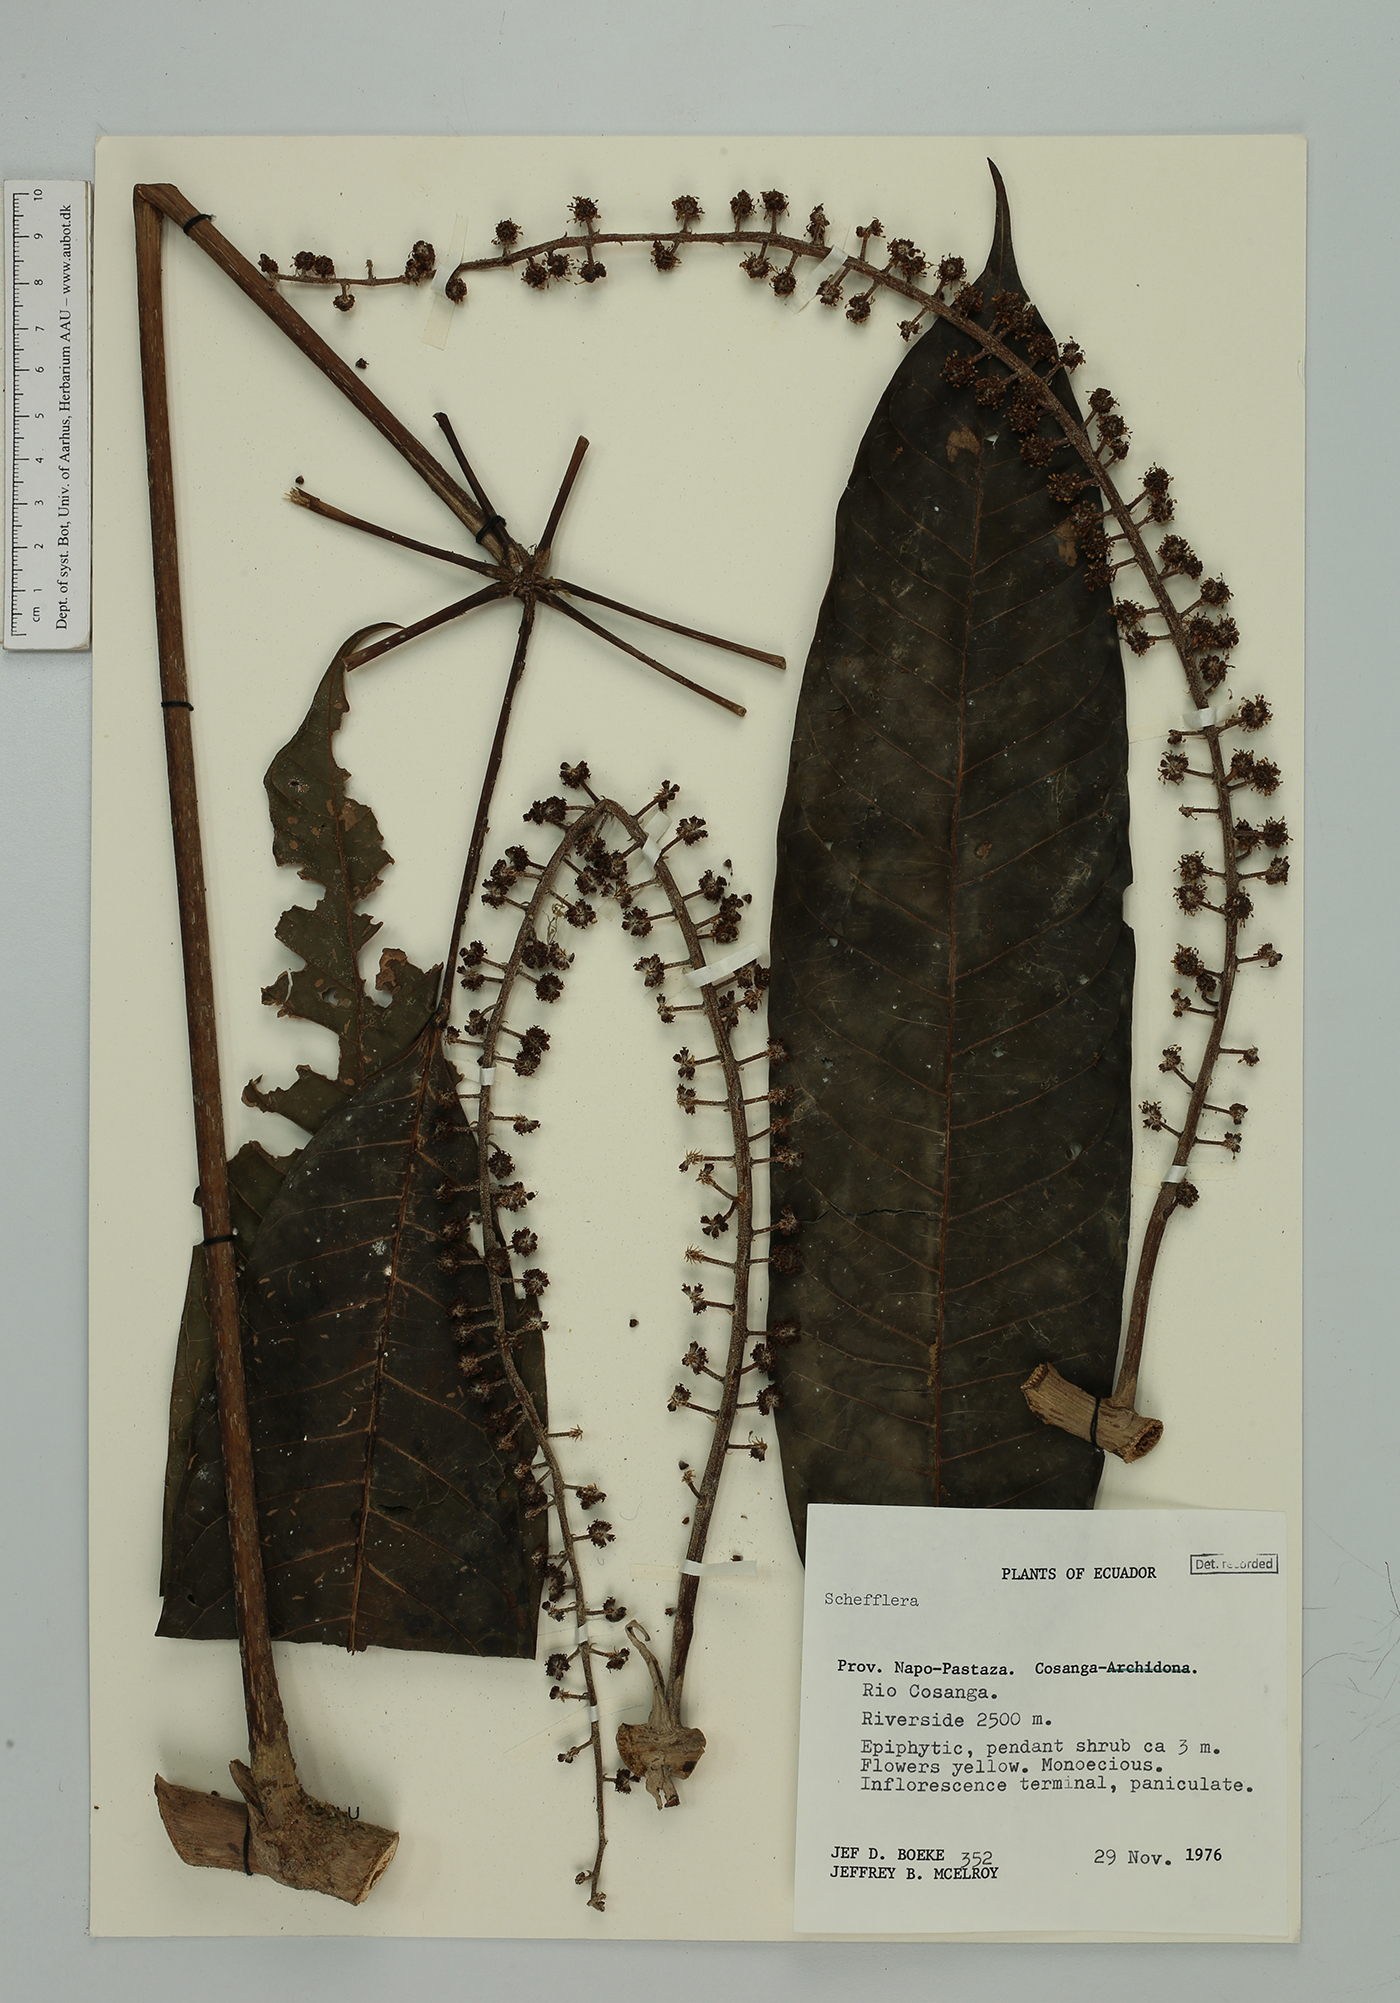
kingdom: Plantae
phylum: Tracheophyta
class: Magnoliopsida
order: Apiales
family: Araliaceae
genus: Sciodaphyllum
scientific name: Sciodaphyllum
